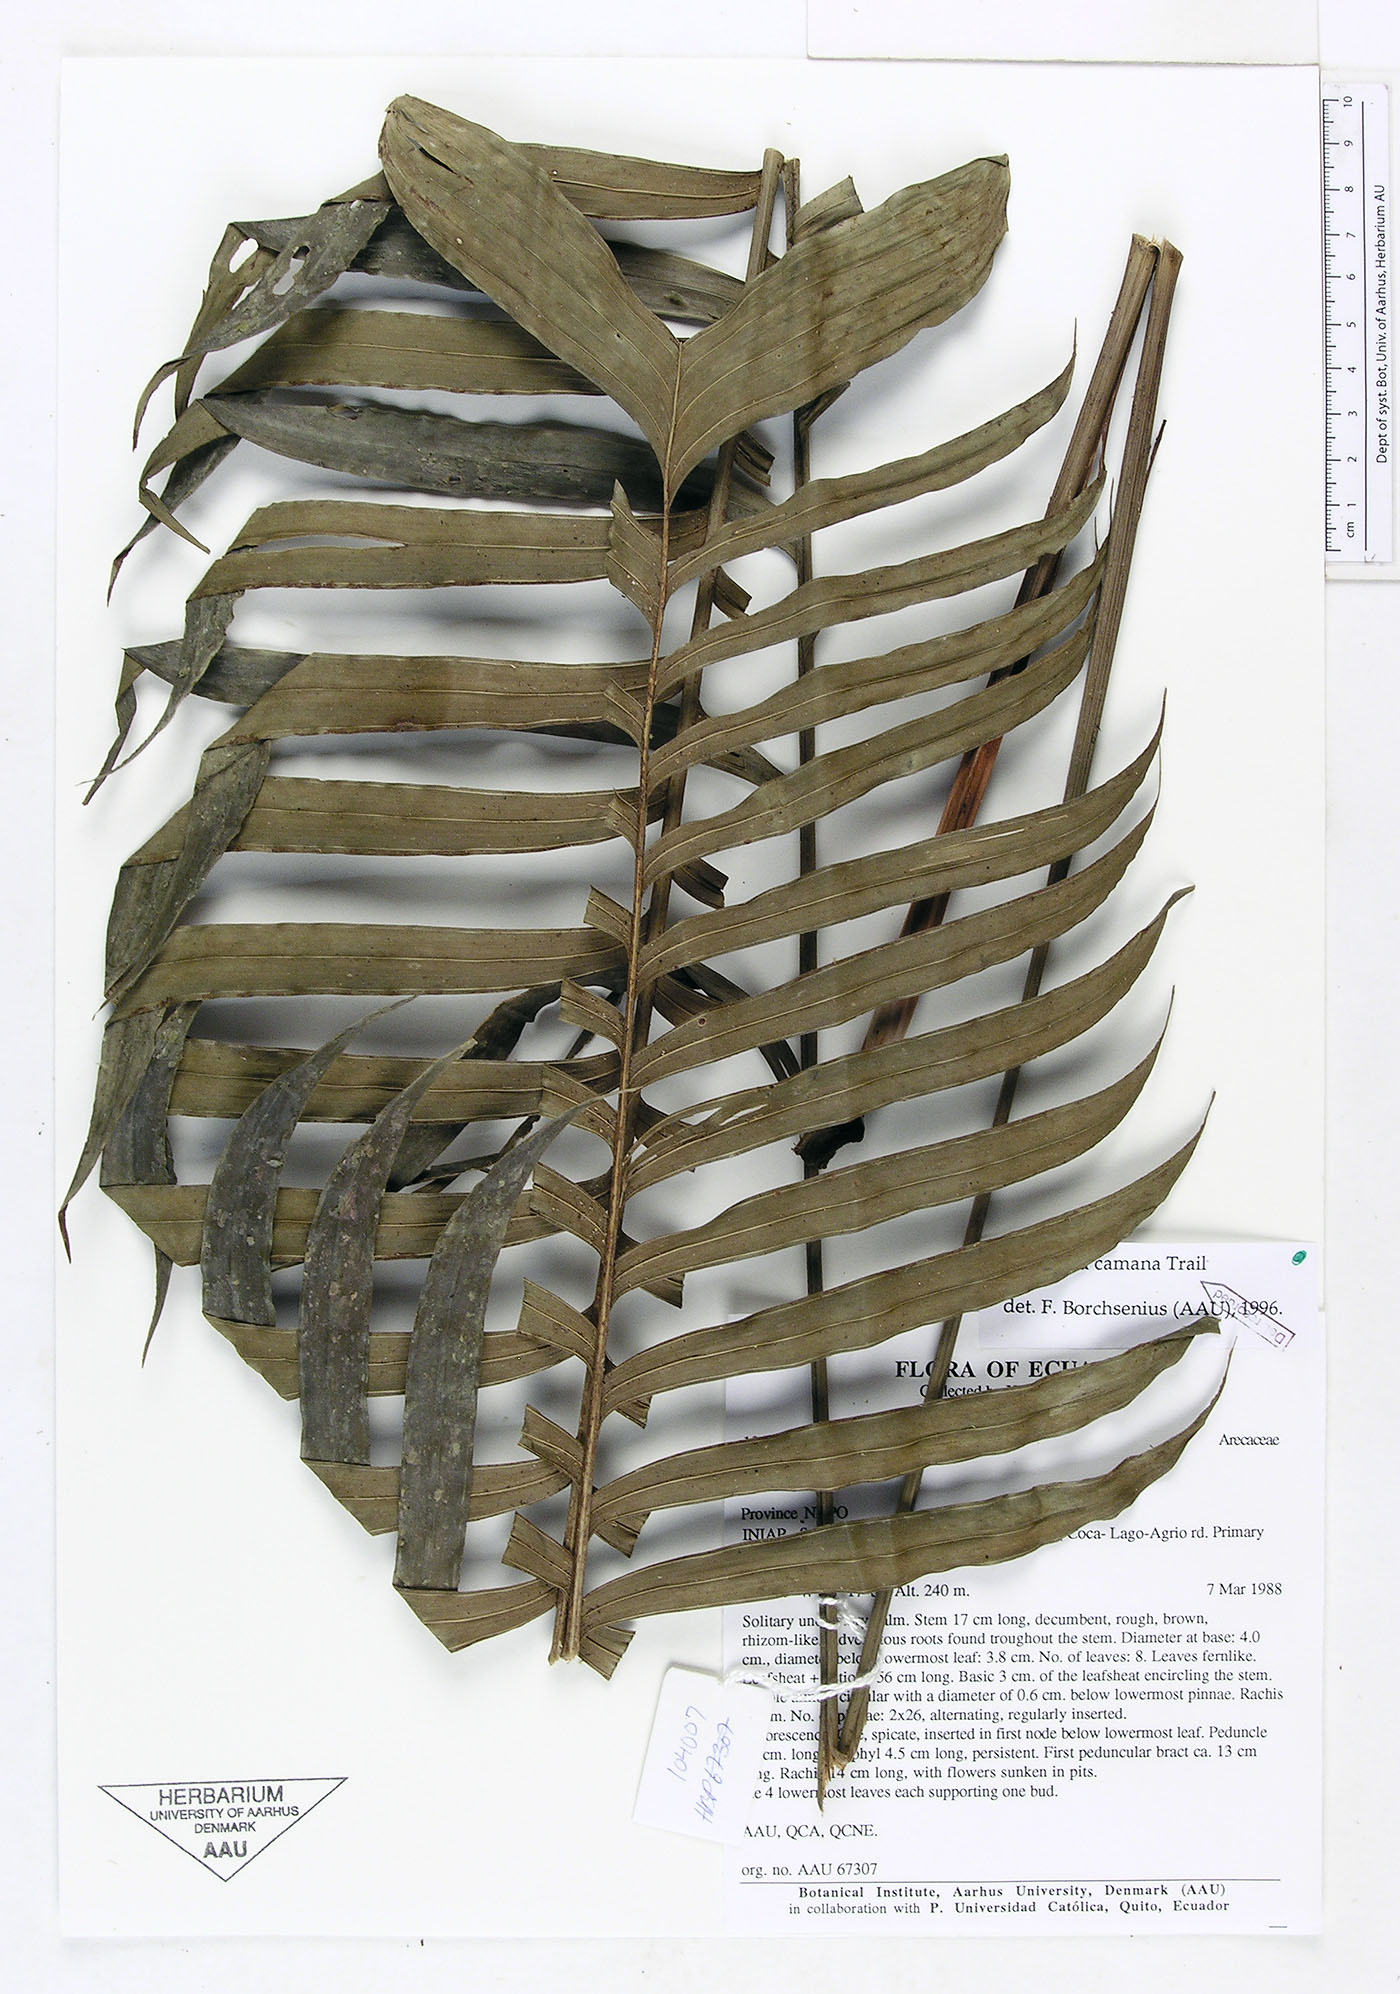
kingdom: Plantae
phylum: Tracheophyta
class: Liliopsida
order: Arecales
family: Arecaceae
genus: Geonoma
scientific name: Geonoma camana
